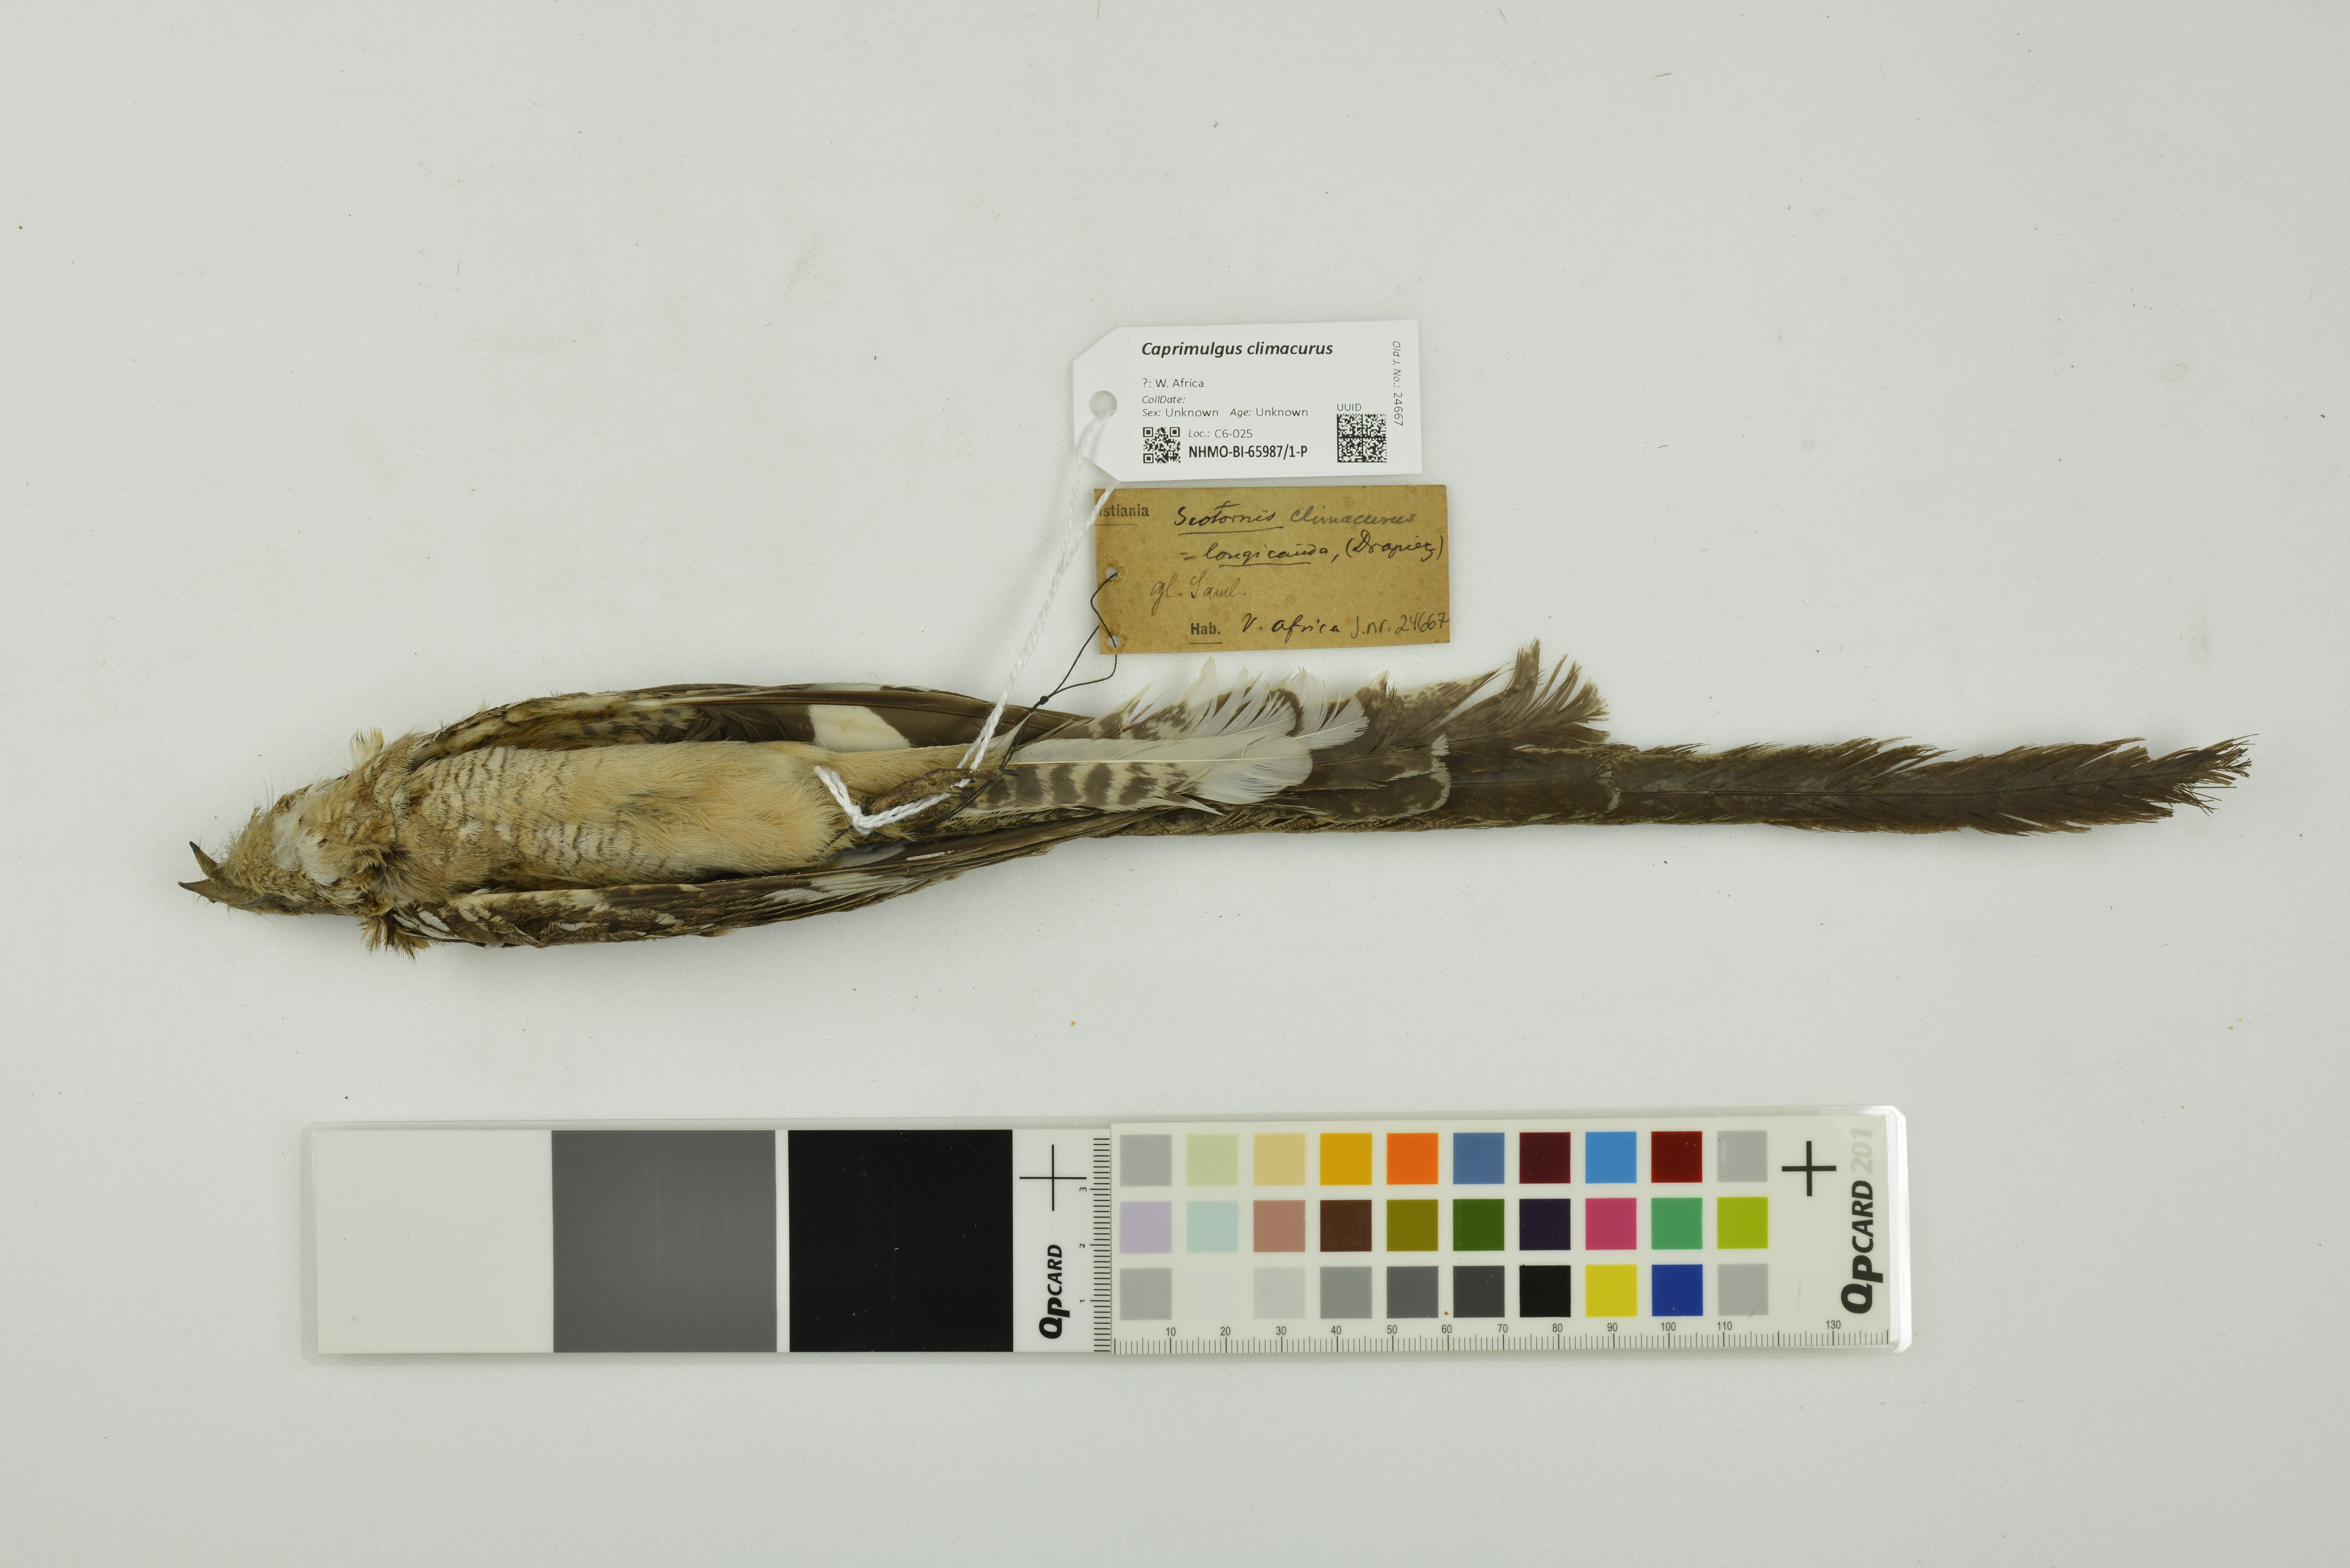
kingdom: Animalia
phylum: Chordata
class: Aves
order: Caprimulgiformes
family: Caprimulgidae
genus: Caprimulgus
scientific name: Caprimulgus climacurus
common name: Long-tailed nightjar
